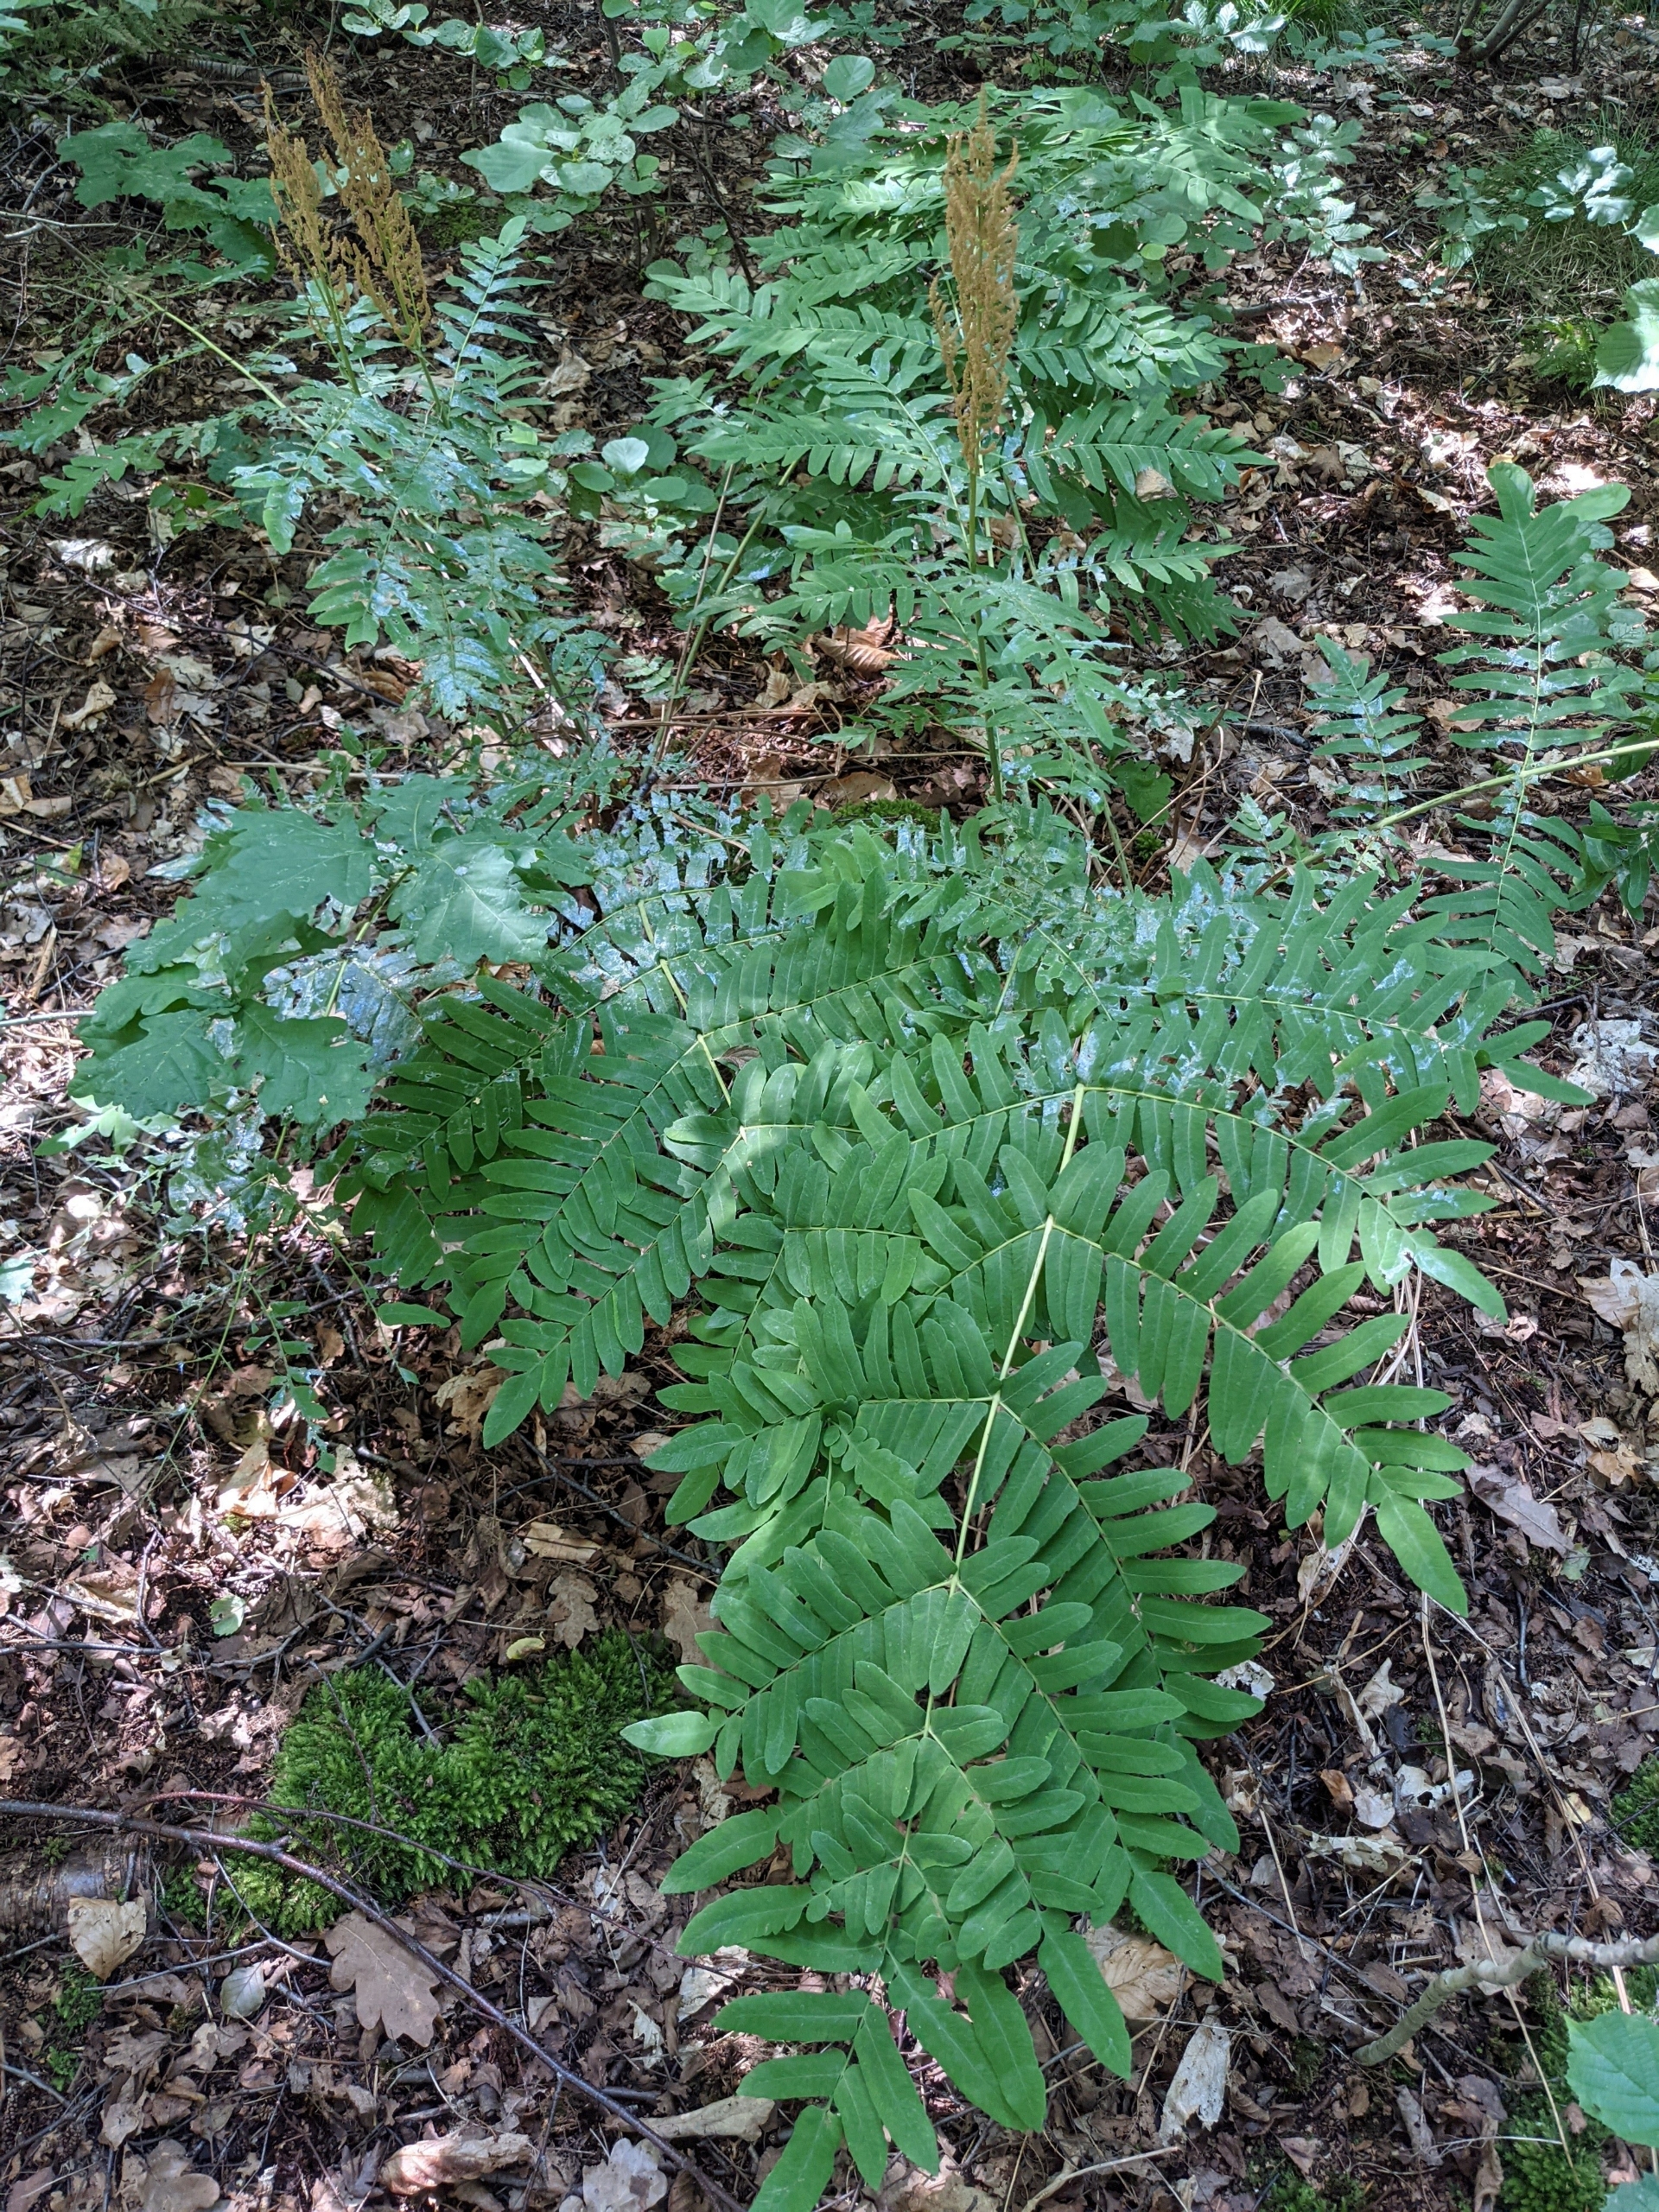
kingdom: Plantae
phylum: Tracheophyta
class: Polypodiopsida
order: Osmundales
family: Osmundaceae
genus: Osmunda
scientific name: Osmunda regalis
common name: Kongebregne
